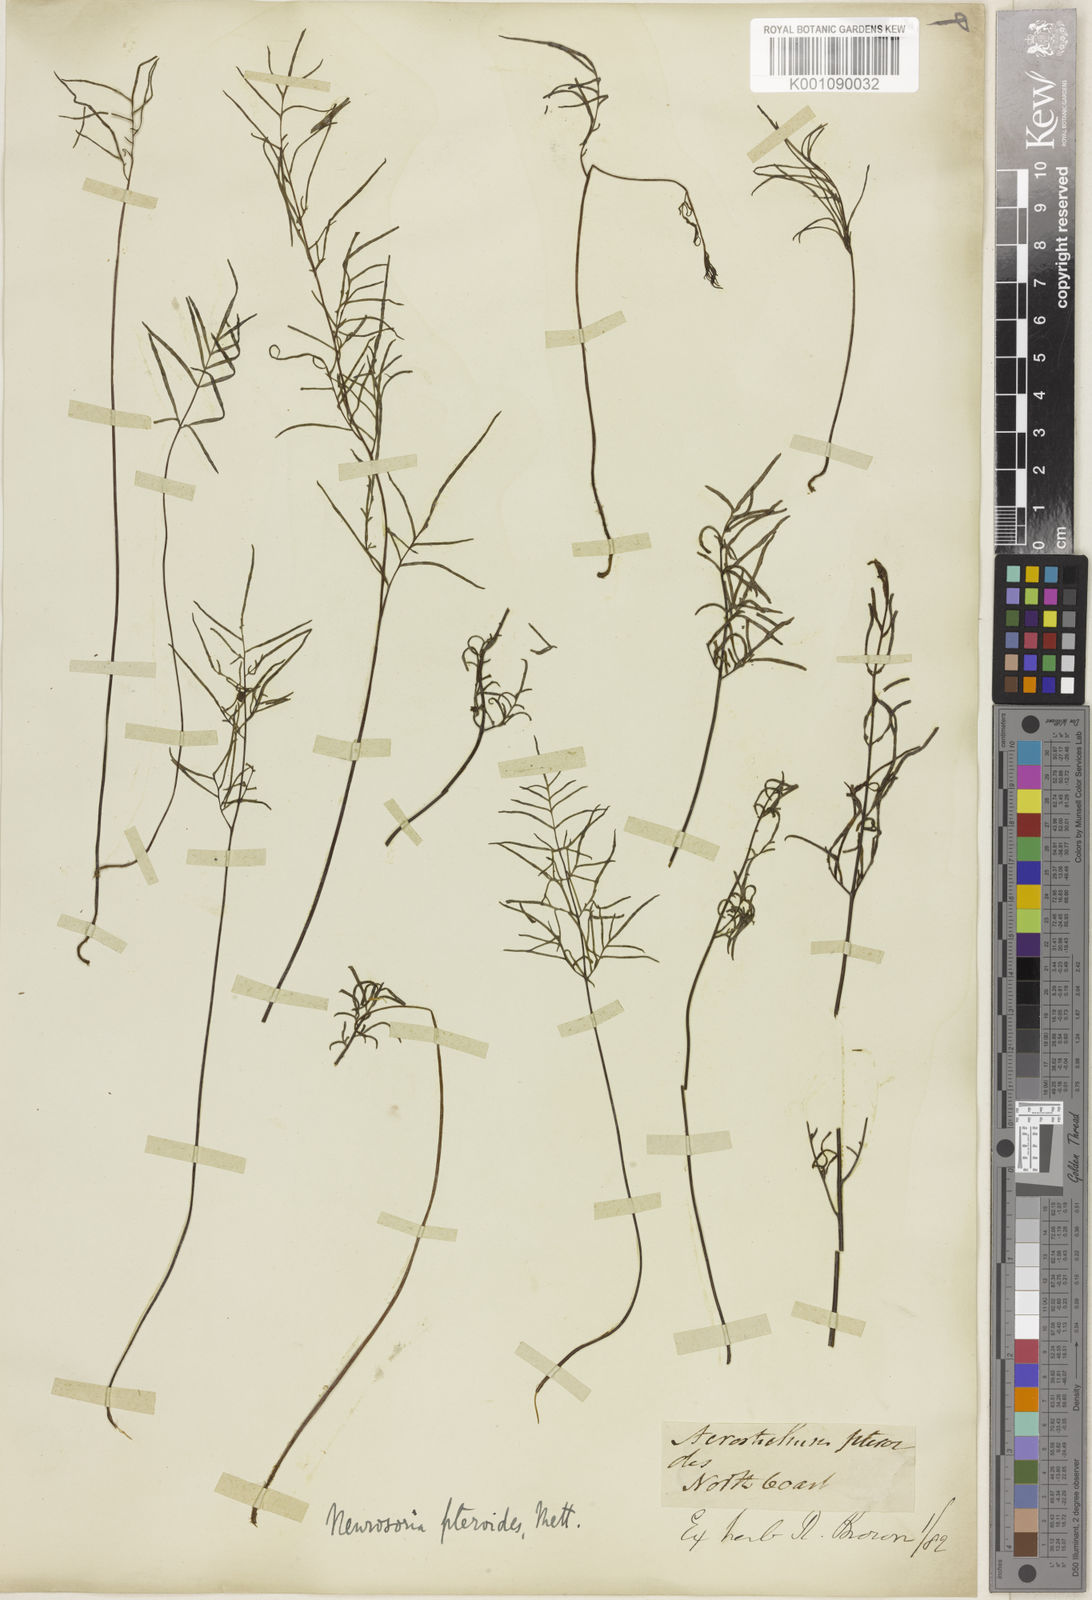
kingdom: Plantae
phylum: Tracheophyta
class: Polypodiopsida
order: Polypodiales
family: Pteridaceae
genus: Cheilanthes
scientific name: Cheilanthes nitida
